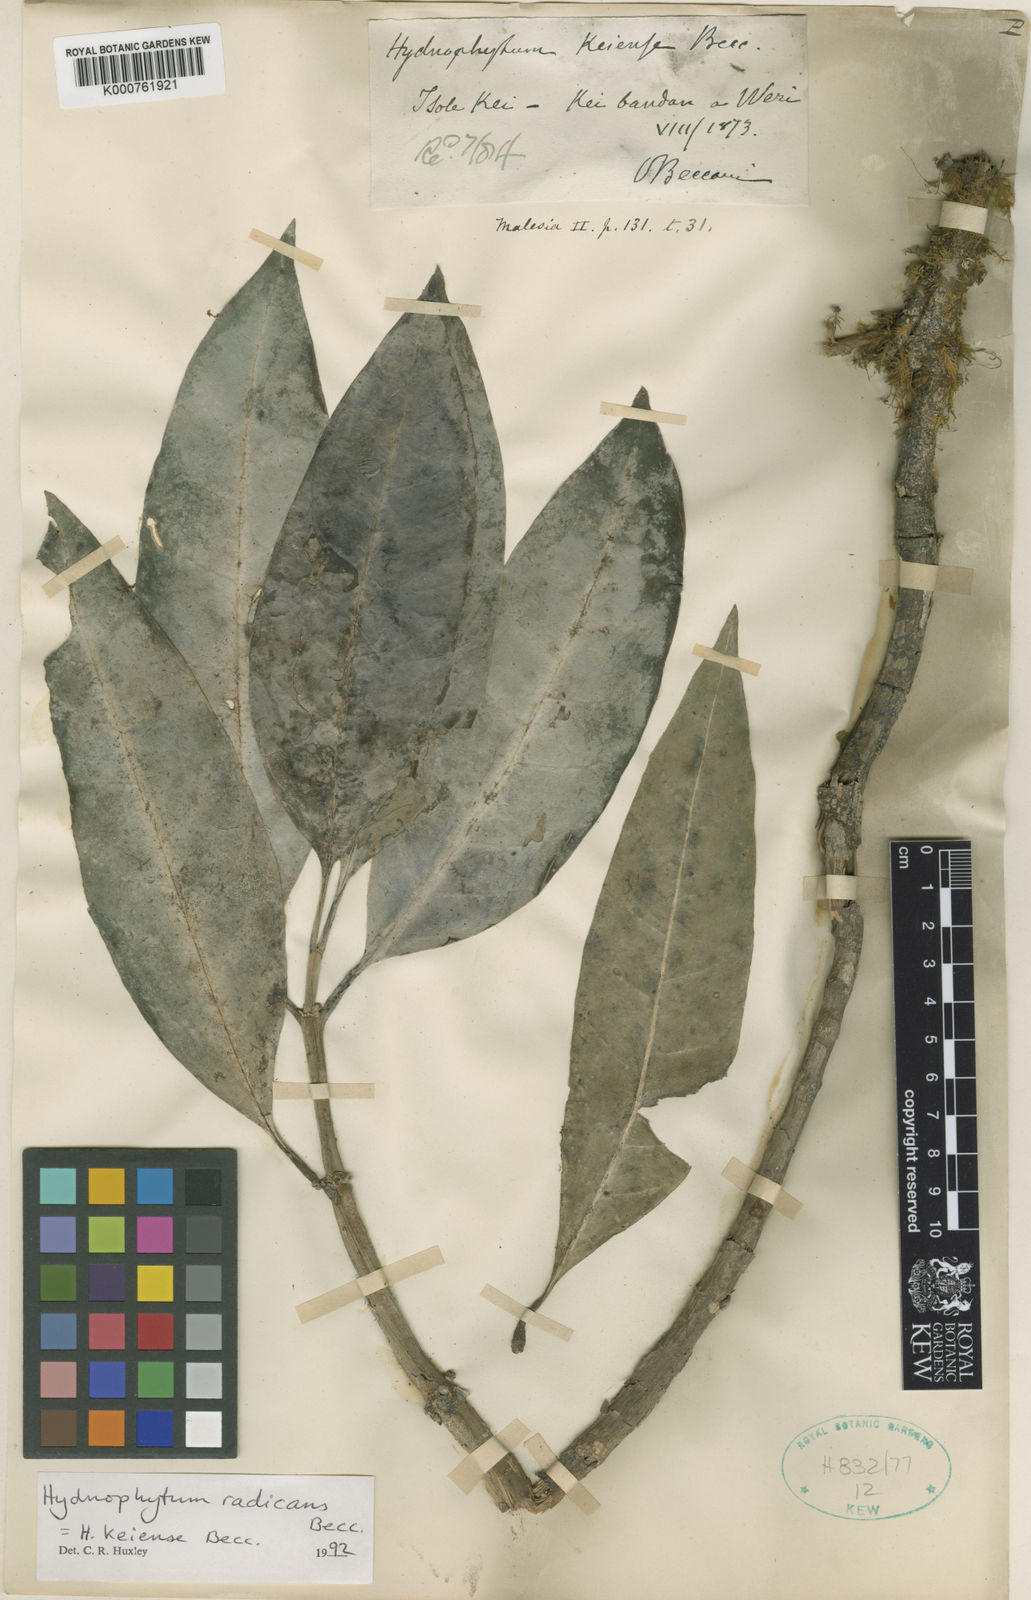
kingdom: Plantae
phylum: Tracheophyta
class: Magnoliopsida
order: Gentianales
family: Rubiaceae
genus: Hydnophytum
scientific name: Hydnophytum radicans
